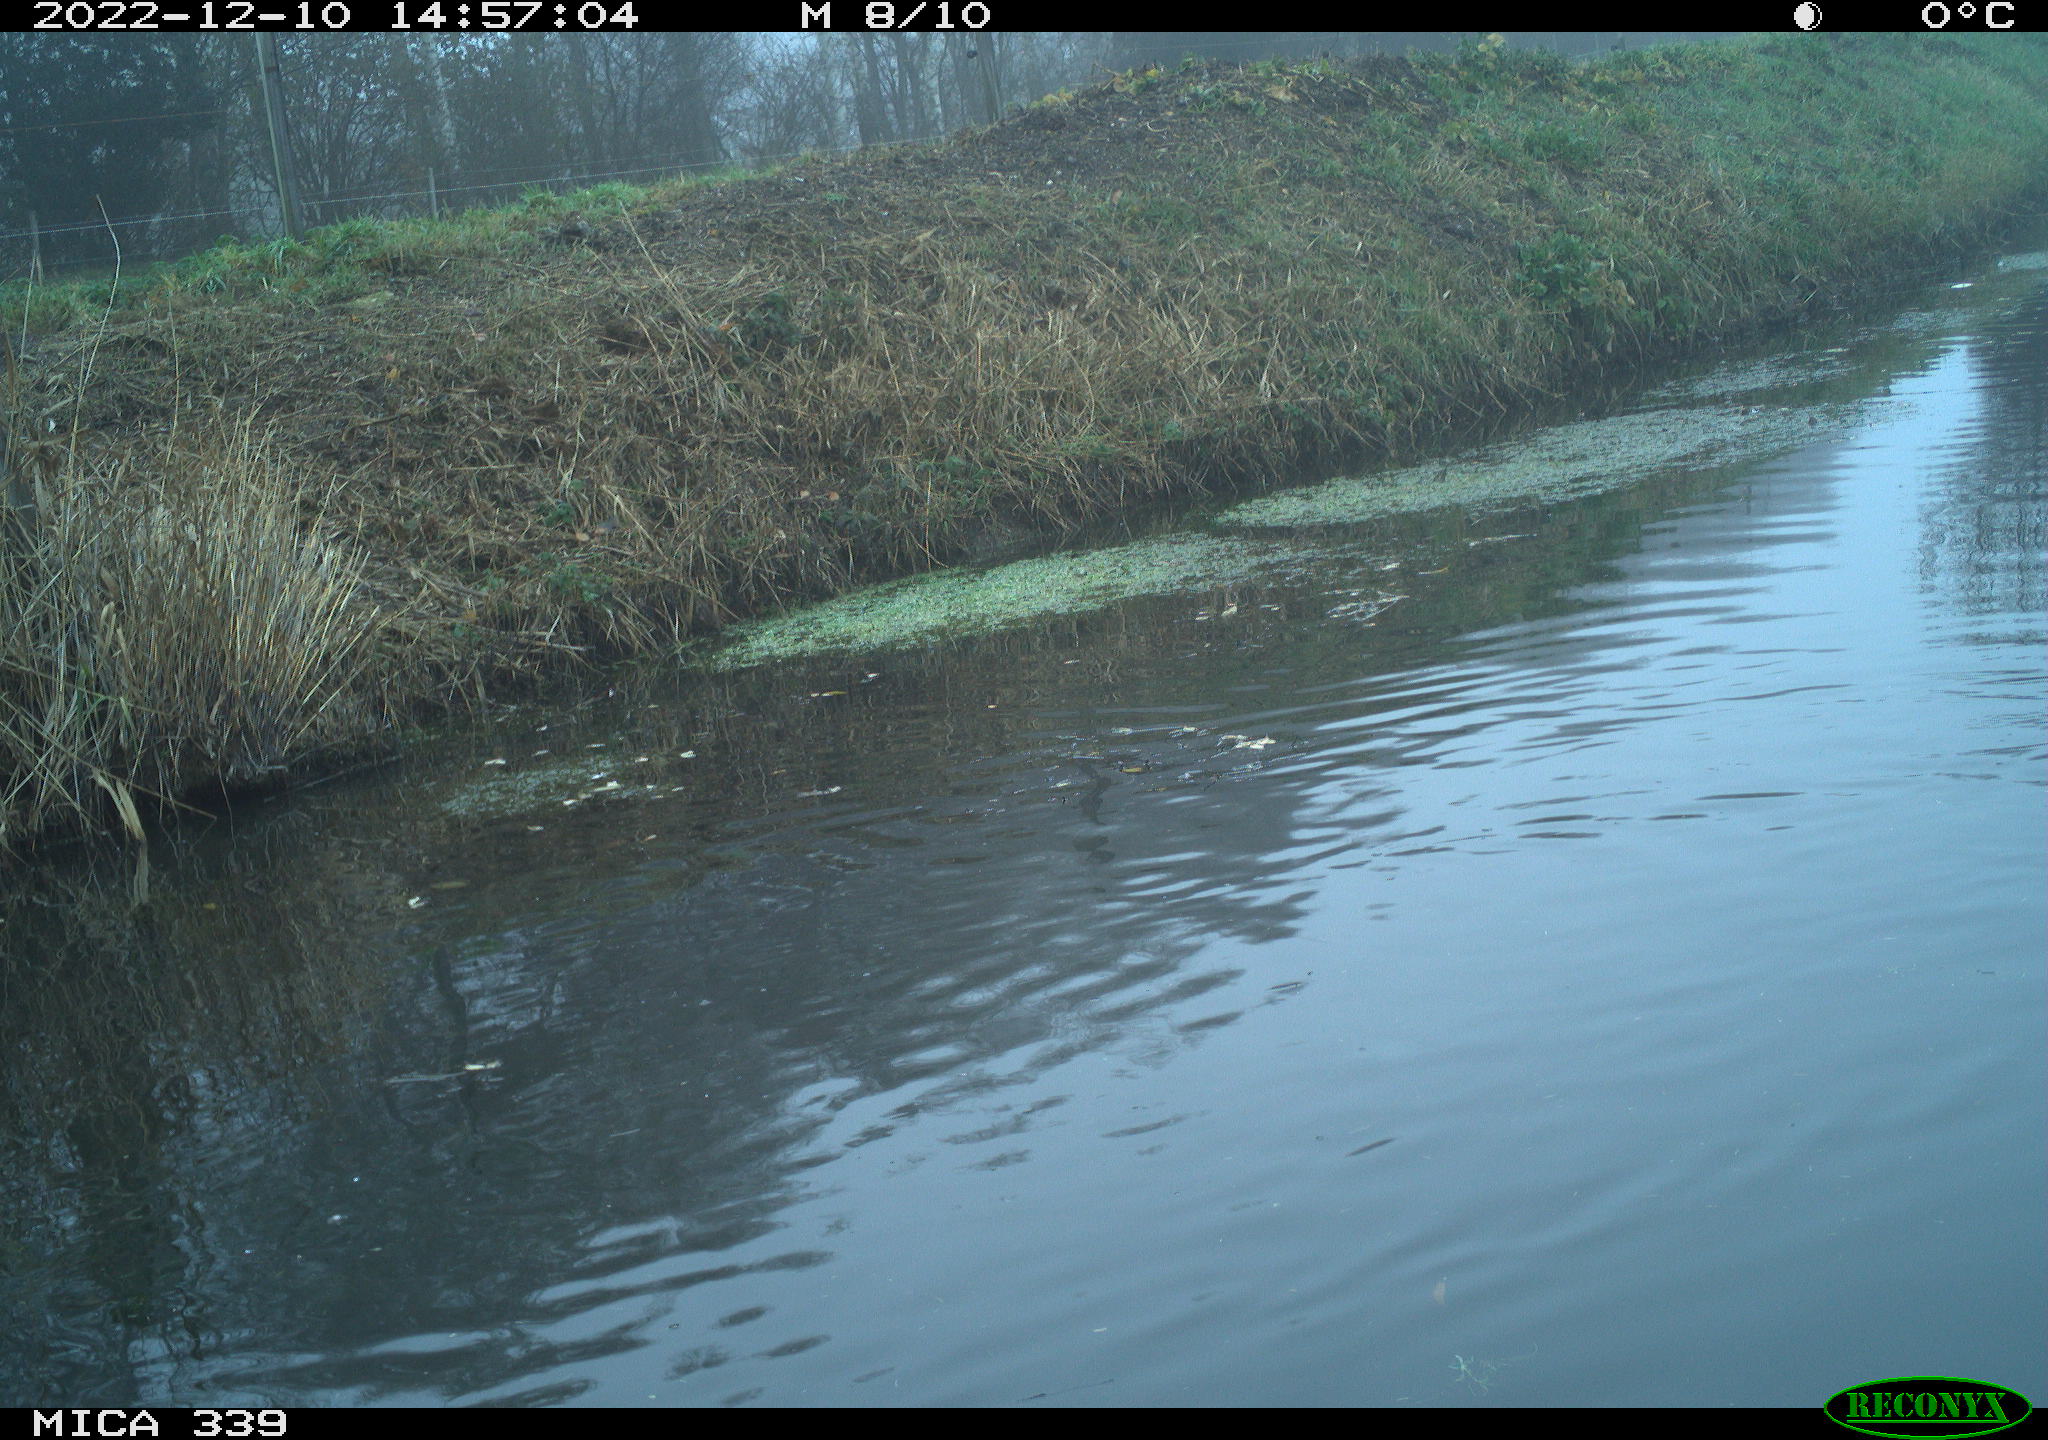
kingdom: Animalia
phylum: Chordata
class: Aves
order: Anseriformes
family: Anatidae
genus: Anas
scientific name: Anas
